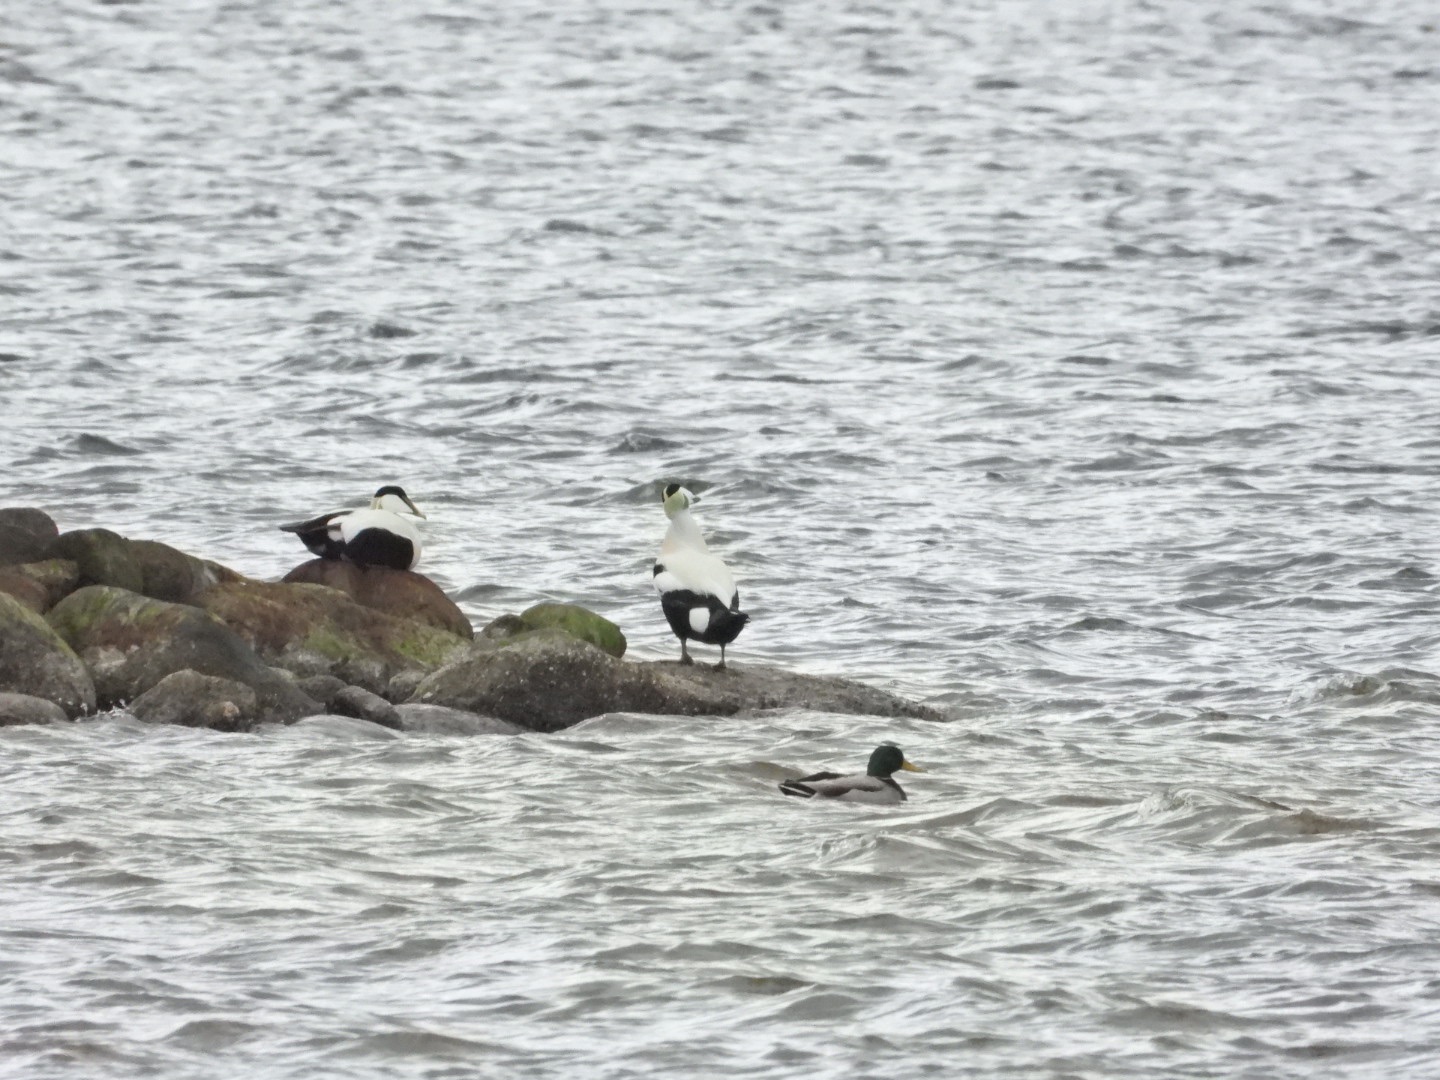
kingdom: Animalia
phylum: Chordata
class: Aves
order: Anseriformes
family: Anatidae
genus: Somateria
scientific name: Somateria mollissima
